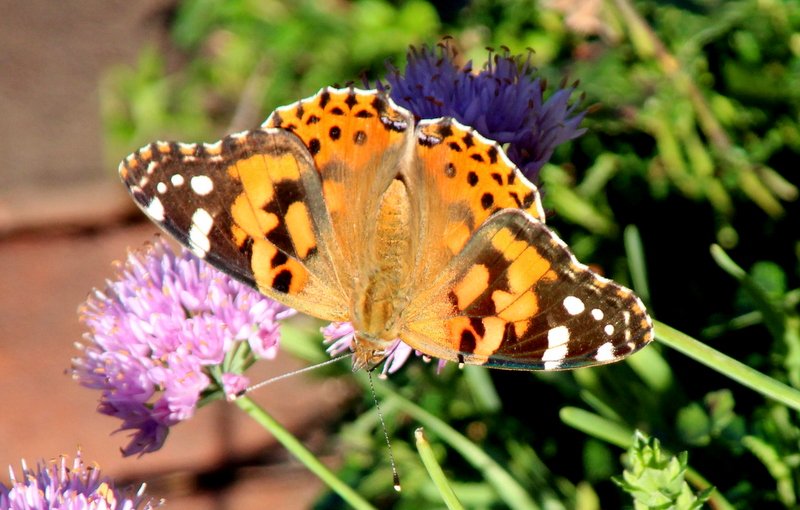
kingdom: Animalia
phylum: Arthropoda
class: Insecta
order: Lepidoptera
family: Nymphalidae
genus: Vanessa
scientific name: Vanessa cardui
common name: Painted Lady
